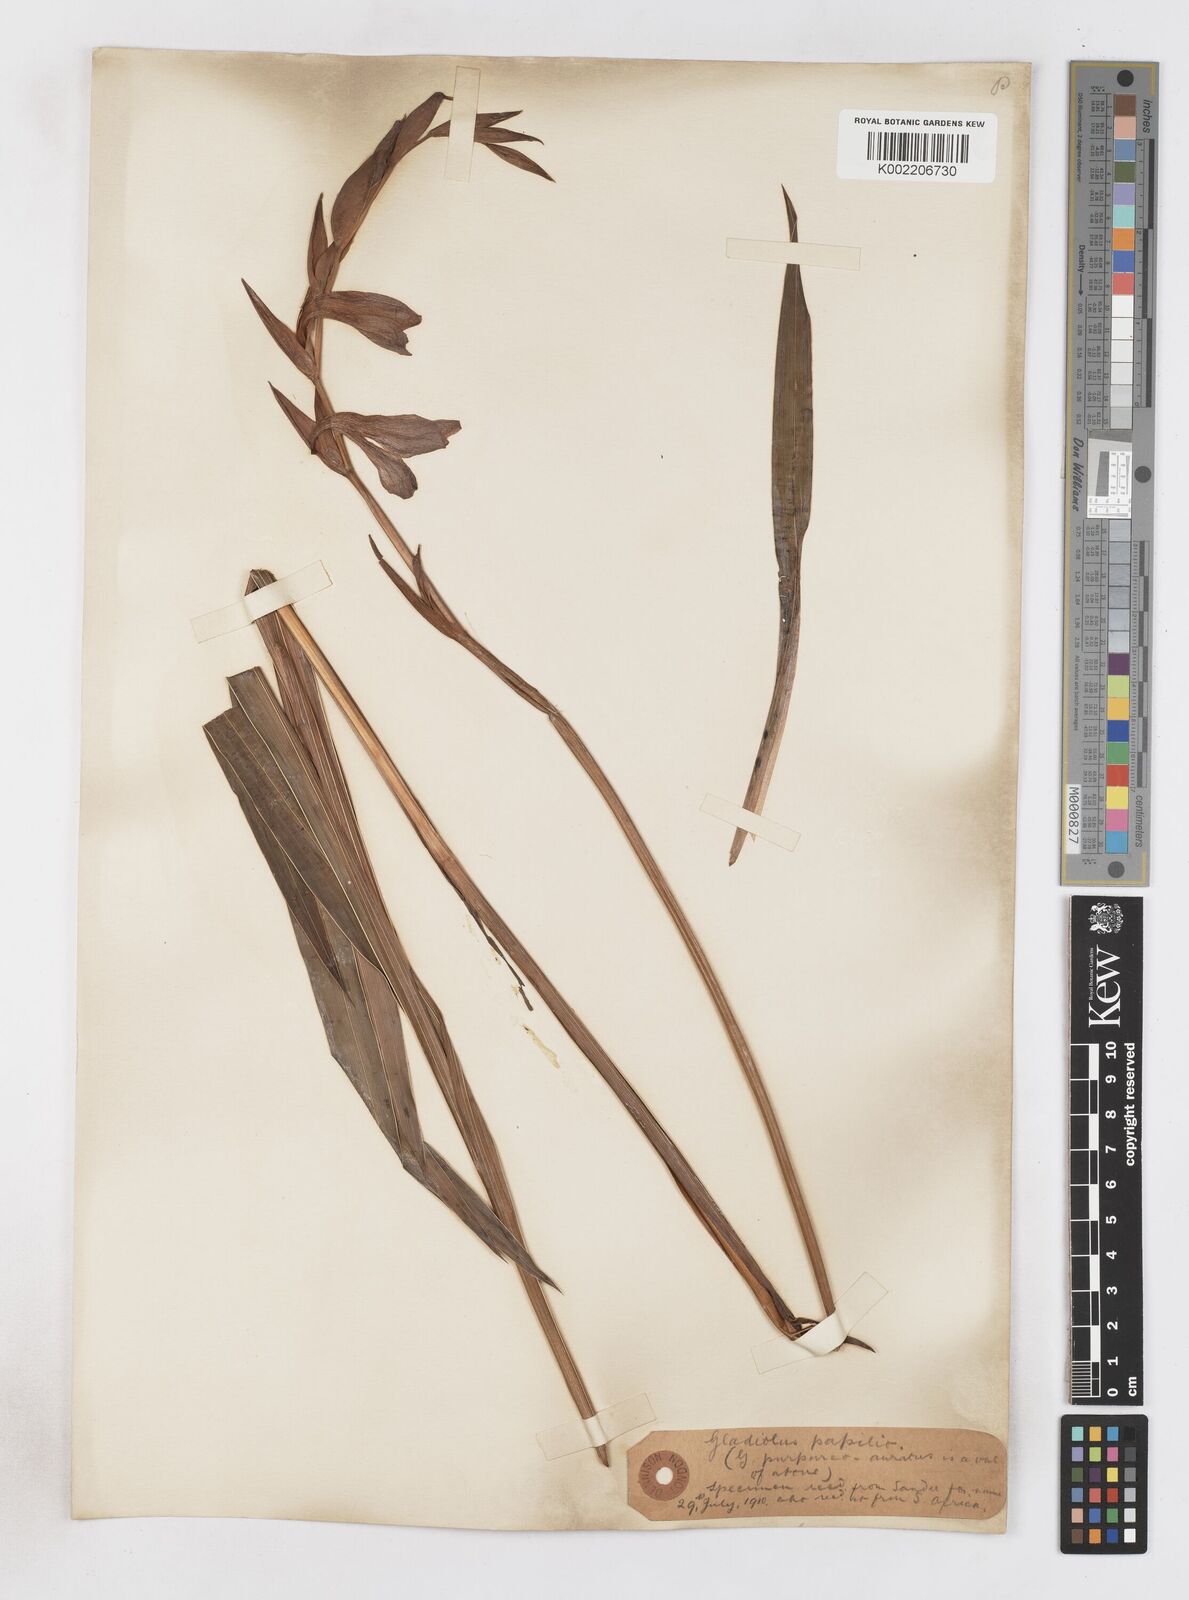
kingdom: Plantae
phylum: Tracheophyta
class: Liliopsida
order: Asparagales
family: Iridaceae
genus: Gladiolus
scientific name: Gladiolus papilio
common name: Goldblotch gladiolus
